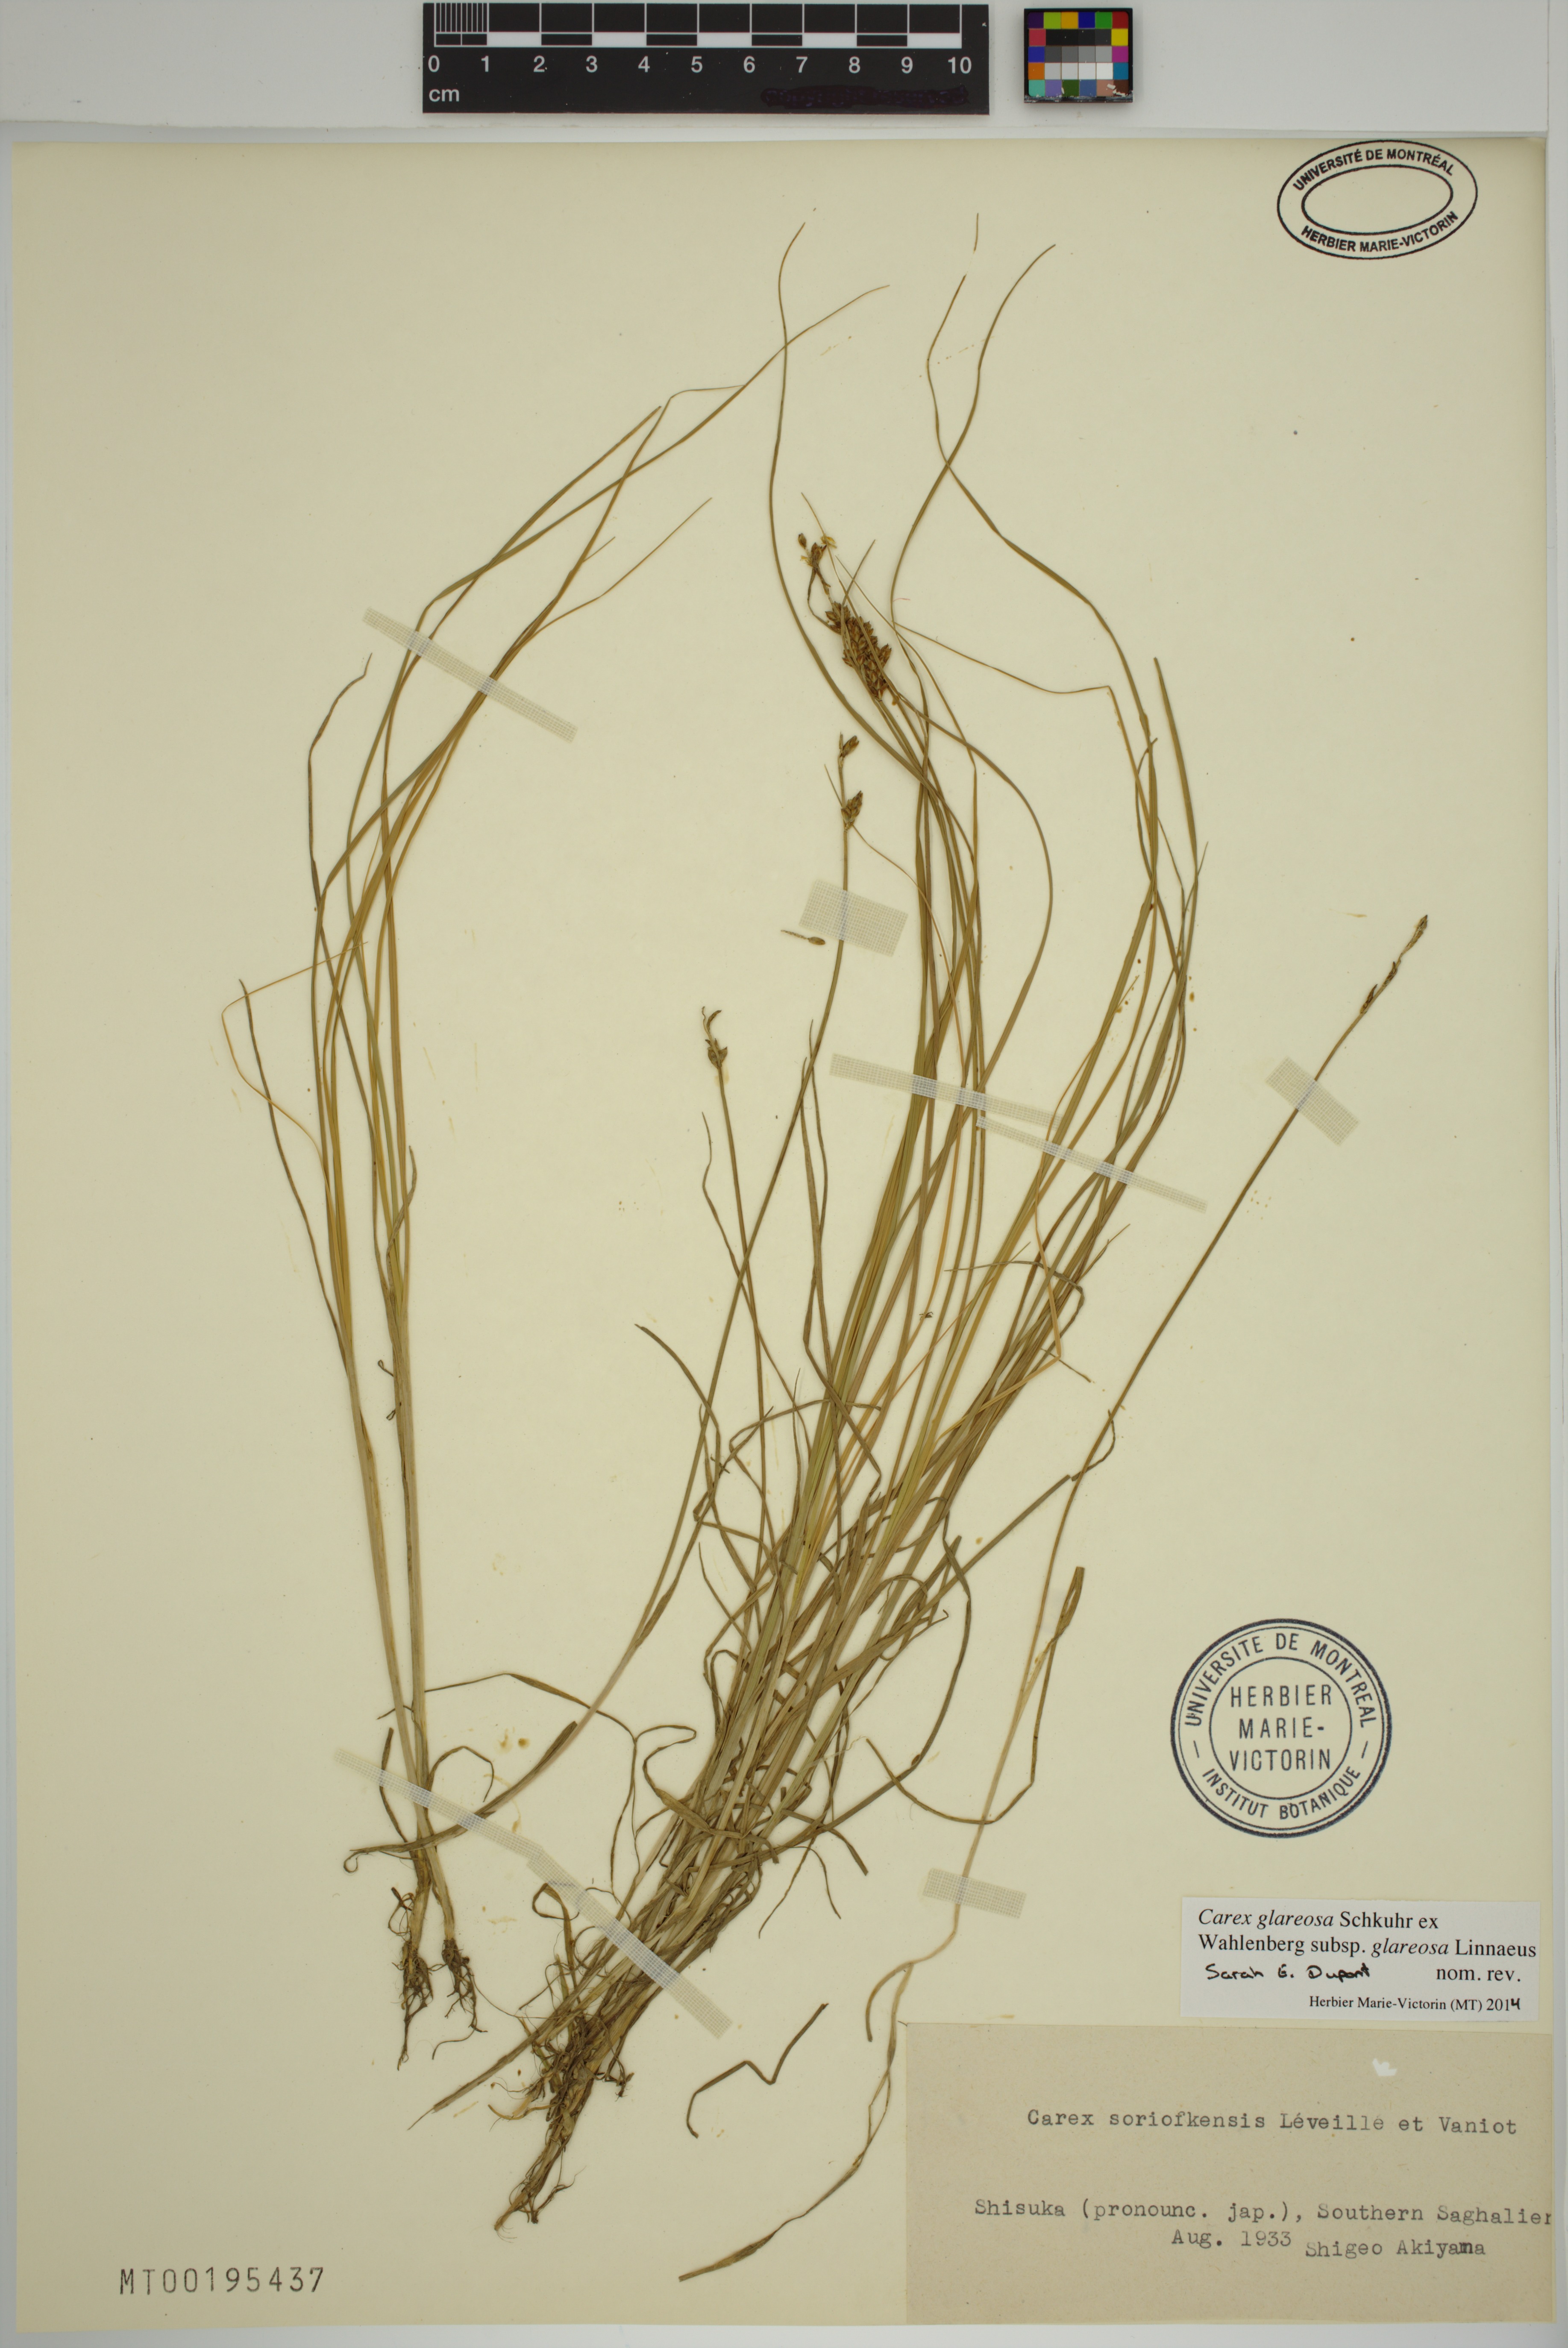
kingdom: Plantae
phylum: Tracheophyta
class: Liliopsida
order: Poales
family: Cyperaceae
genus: Carex
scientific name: Carex glareosa
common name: Clustered sedge
